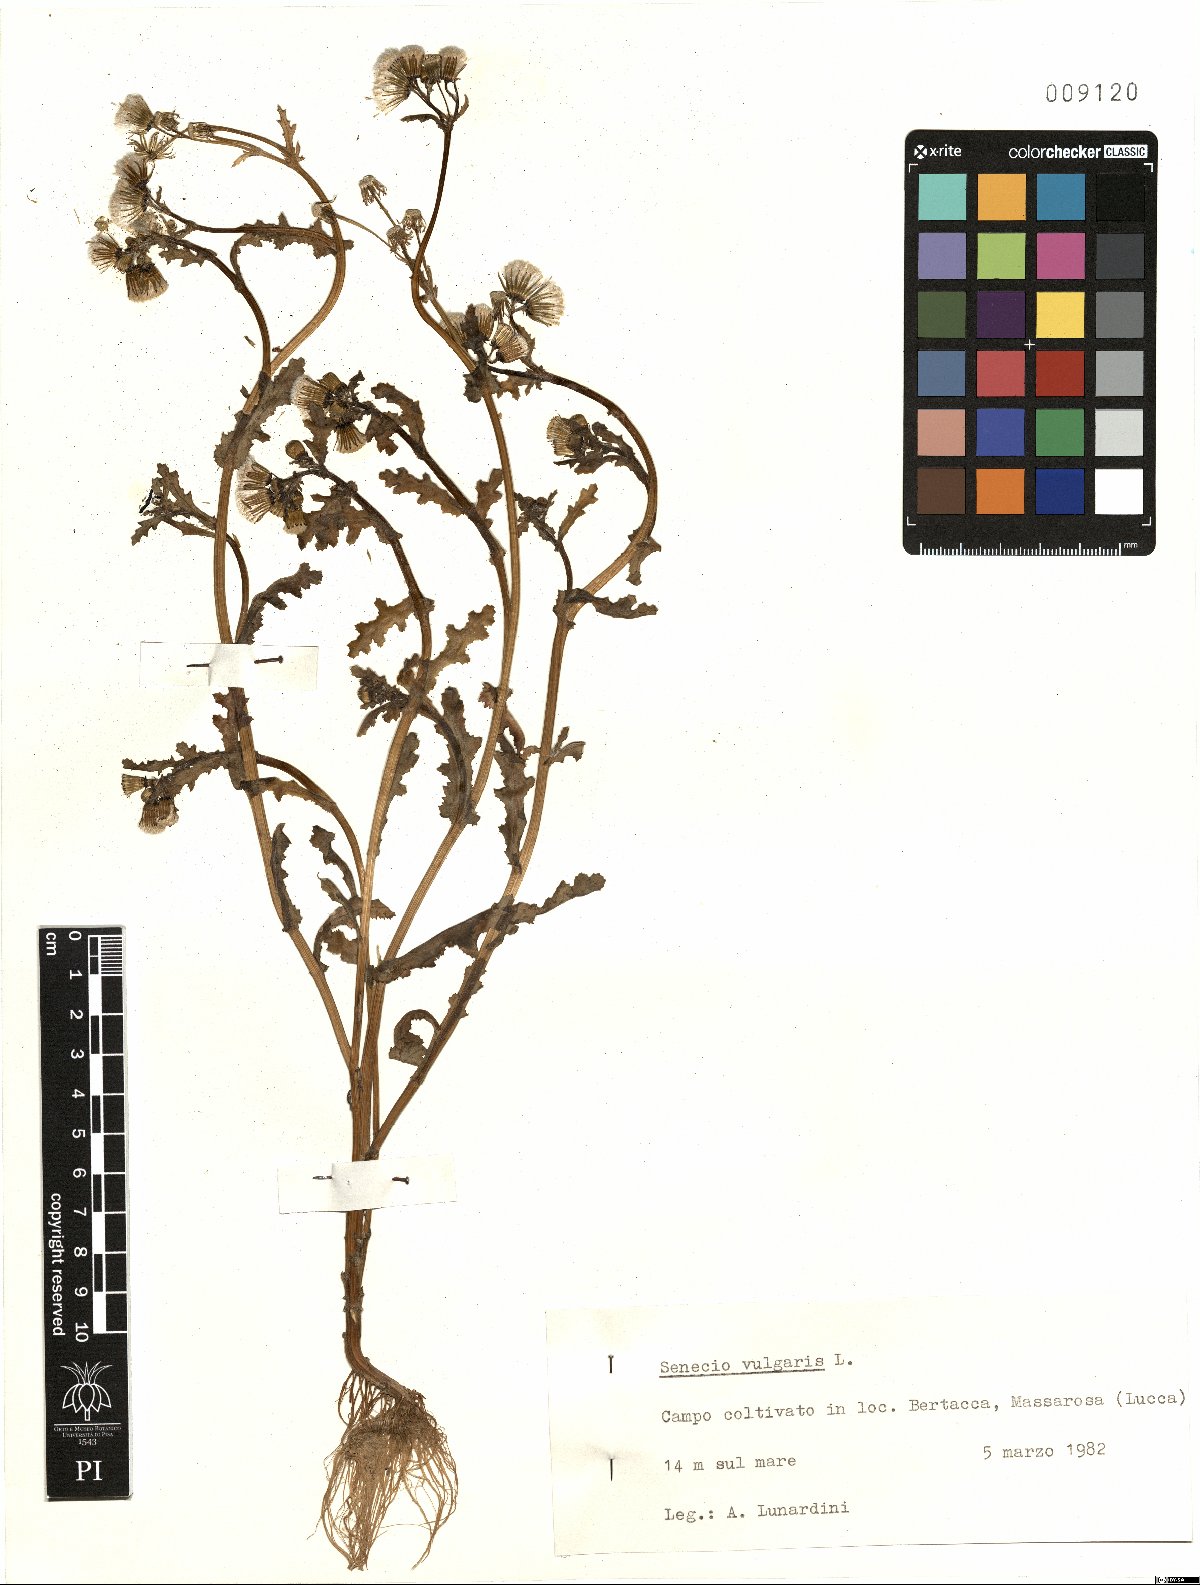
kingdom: Plantae
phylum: Tracheophyta
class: Magnoliopsida
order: Asterales
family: Asteraceae
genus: Senecio
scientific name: Senecio vulgaris
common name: Old-man-in-the-spring
